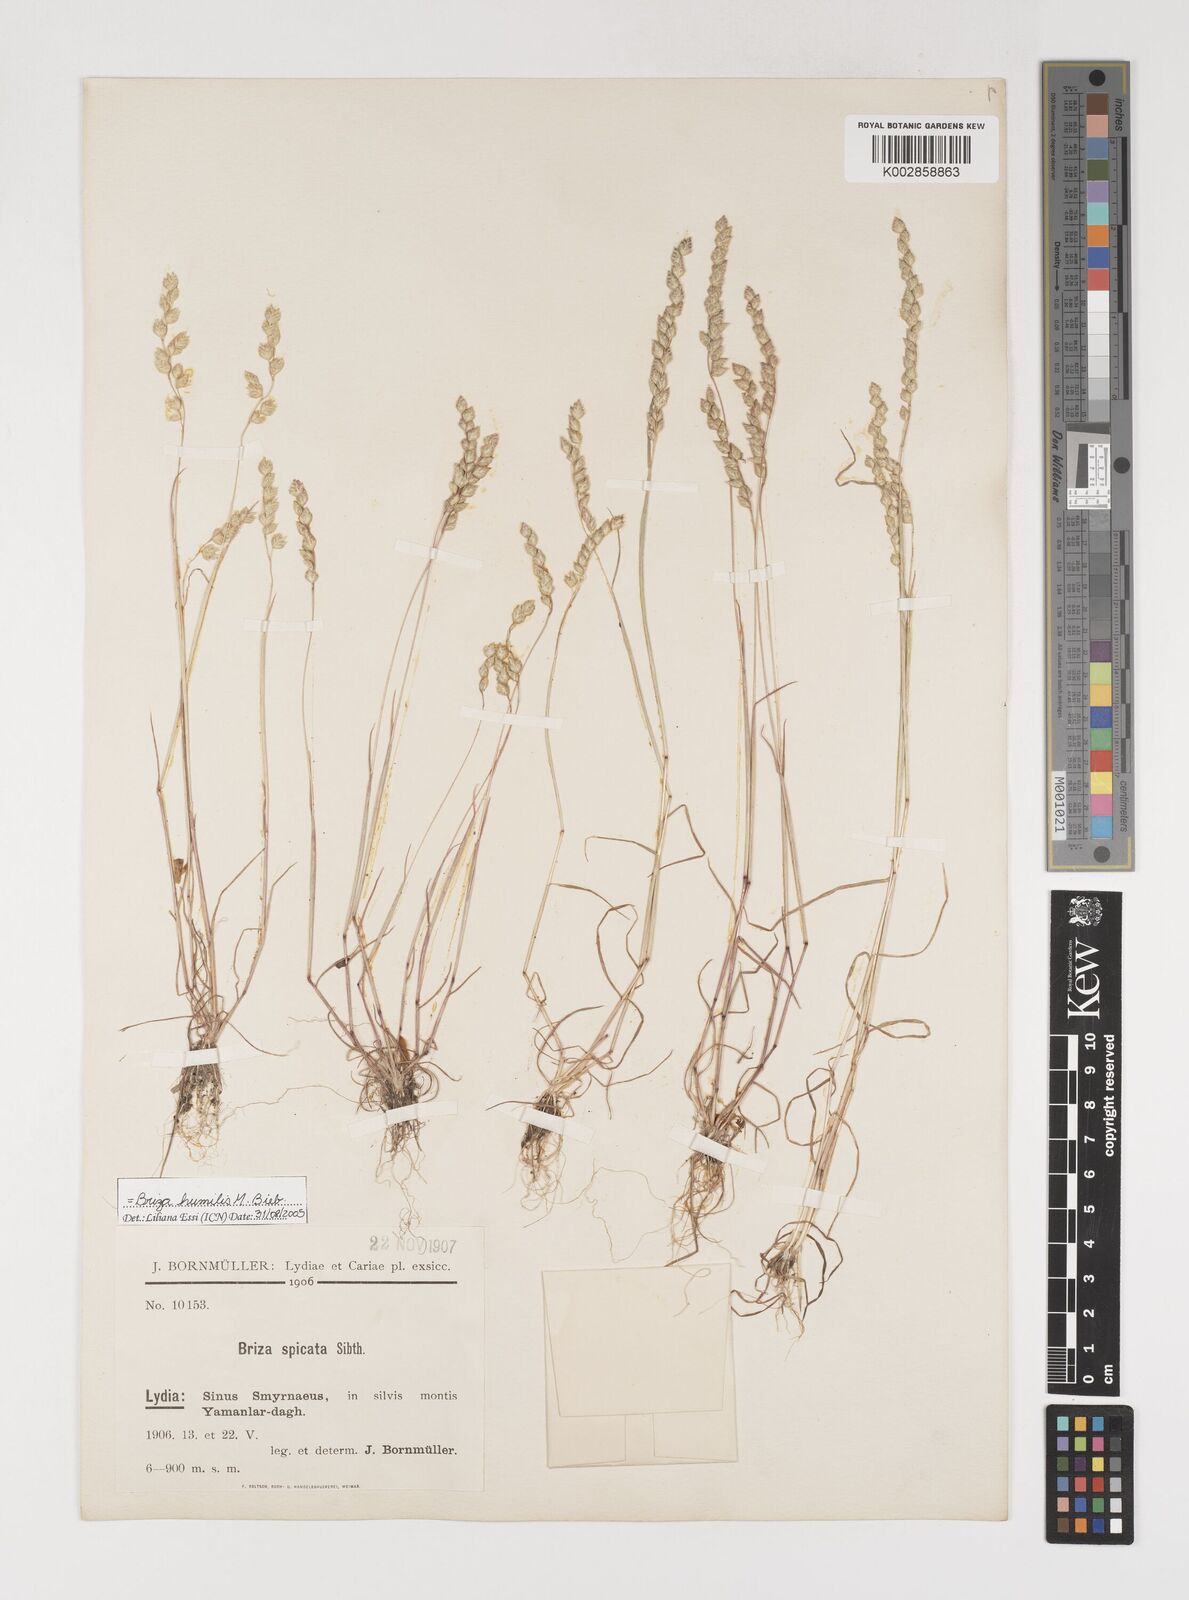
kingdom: Plantae
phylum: Tracheophyta
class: Liliopsida
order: Poales
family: Poaceae
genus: Briza
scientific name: Briza humilis
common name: Spiked quaking grass
